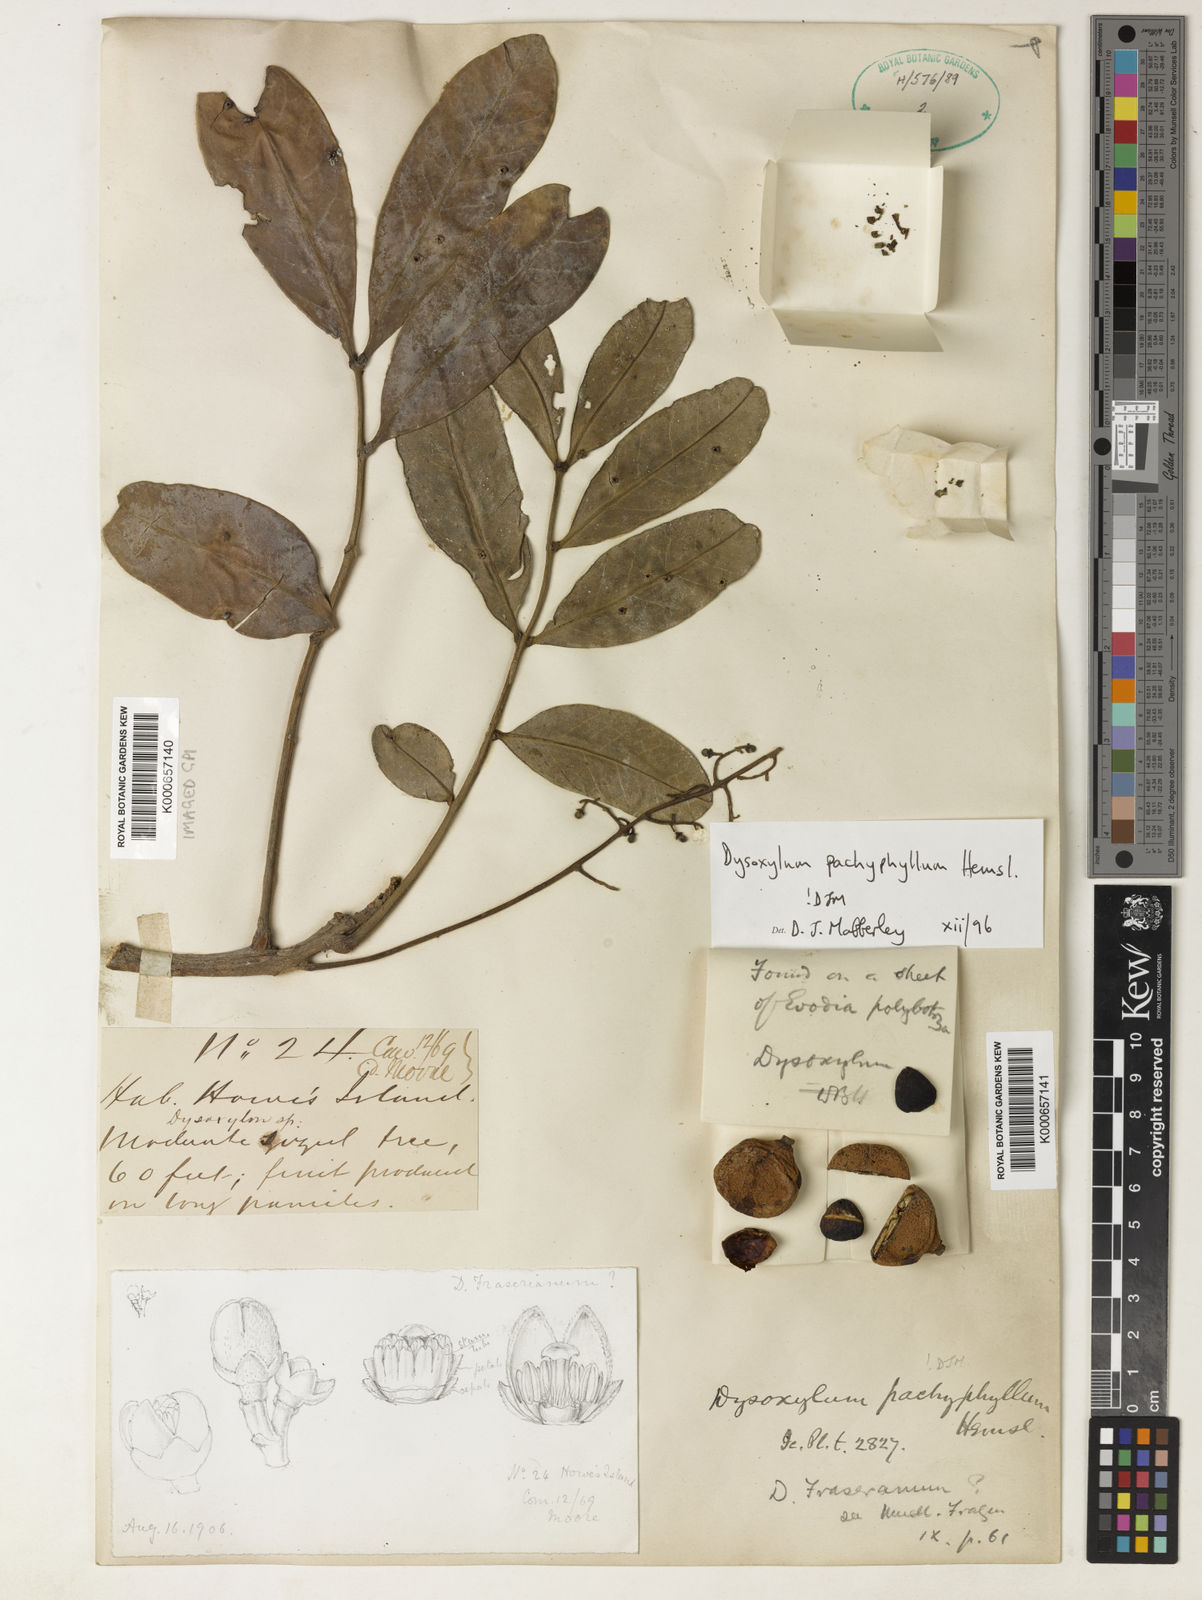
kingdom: Plantae
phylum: Tracheophyta
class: Magnoliopsida
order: Sapindales
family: Meliaceae
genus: Didymocheton
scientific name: Didymocheton pachyphyllus
